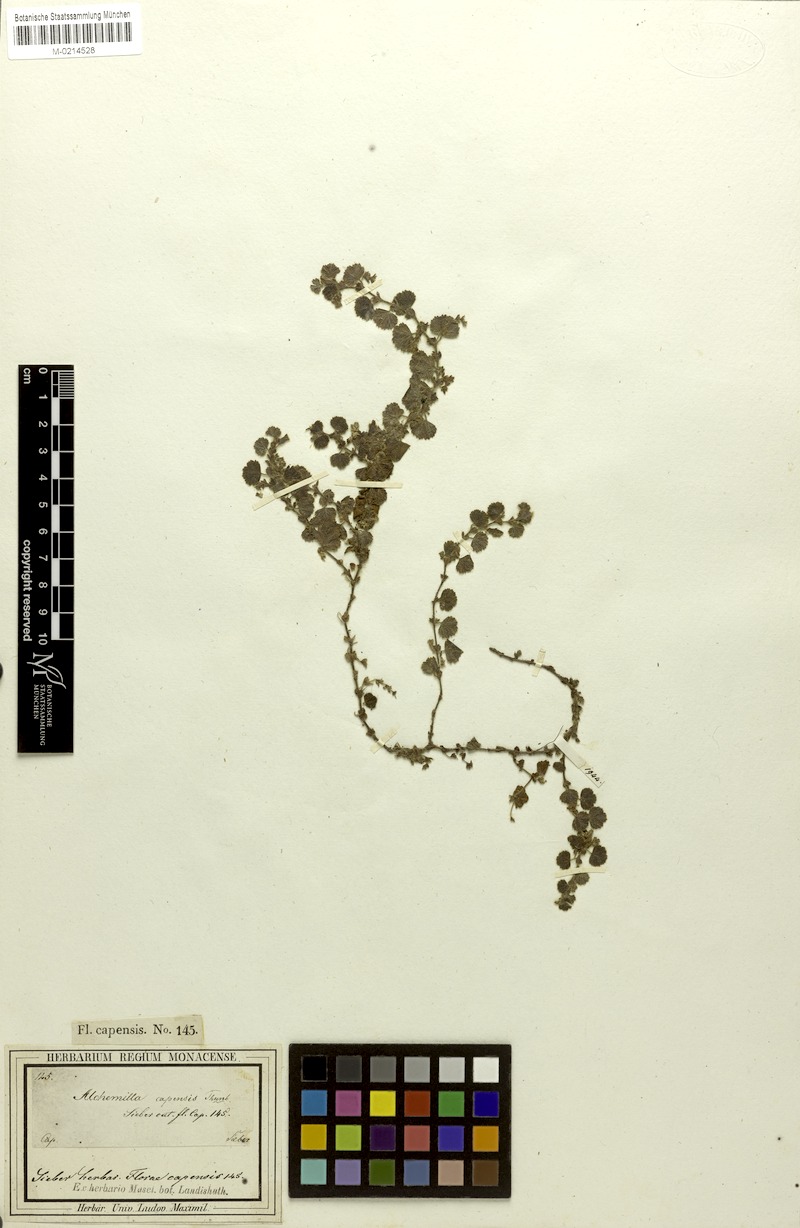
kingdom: Plantae
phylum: Tracheophyta
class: Magnoliopsida
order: Rosales
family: Rosaceae
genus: Alchemilla
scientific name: Alchemilla capensis
